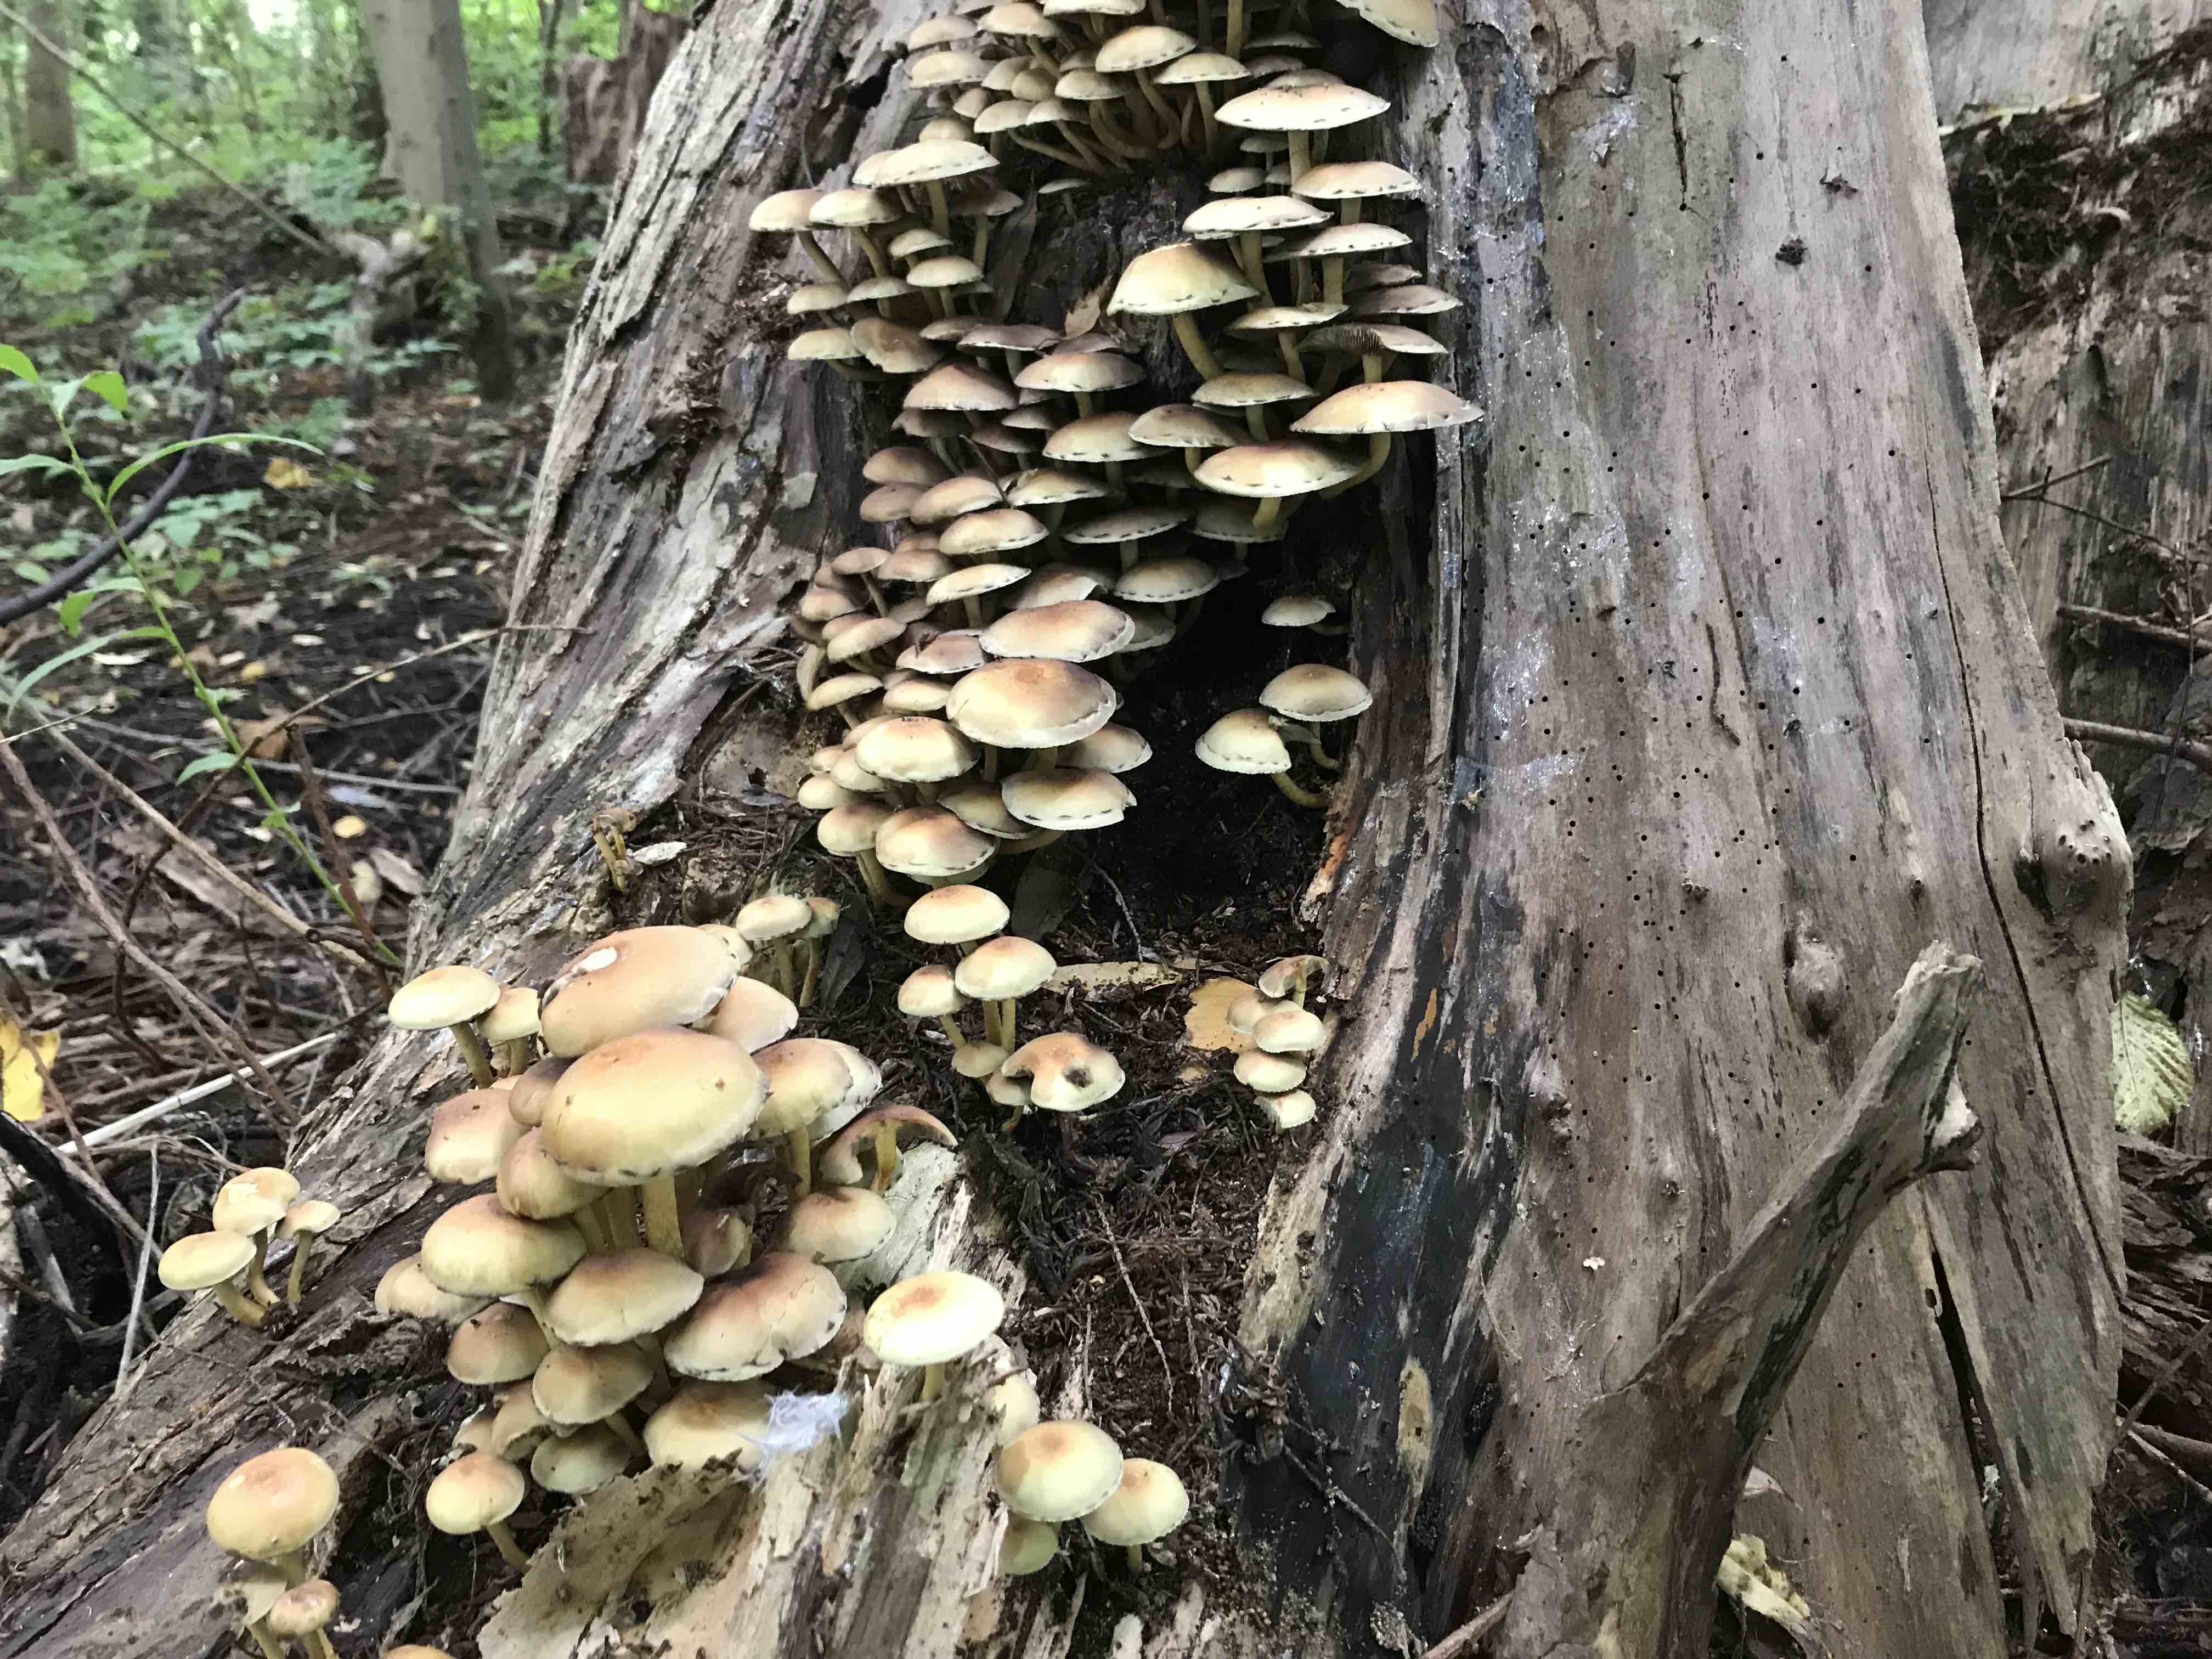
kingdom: Fungi
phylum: Basidiomycota
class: Agaricomycetes
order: Agaricales
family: Strophariaceae
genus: Hypholoma
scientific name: Hypholoma fasciculare
